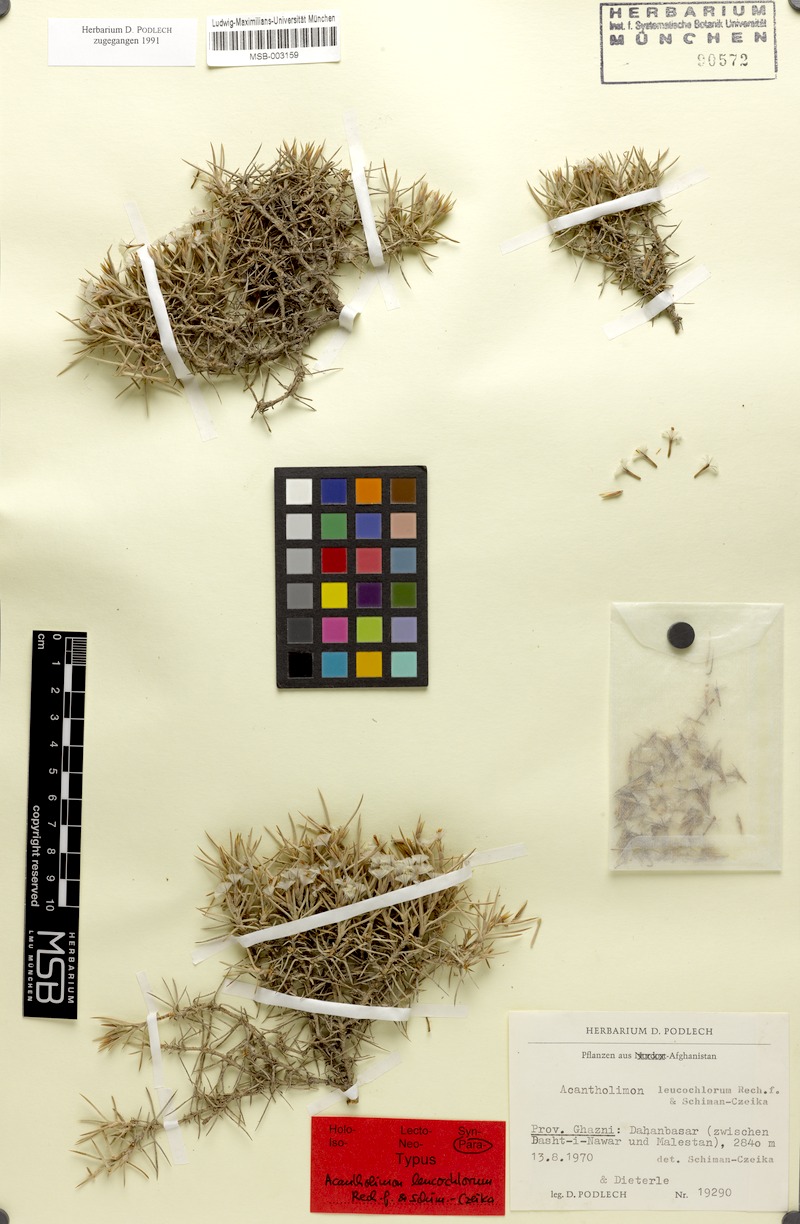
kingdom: Plantae
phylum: Tracheophyta
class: Magnoliopsida
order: Caryophyllales
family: Plumbaginaceae
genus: Acantholimon
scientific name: Acantholimon leucochlorum
